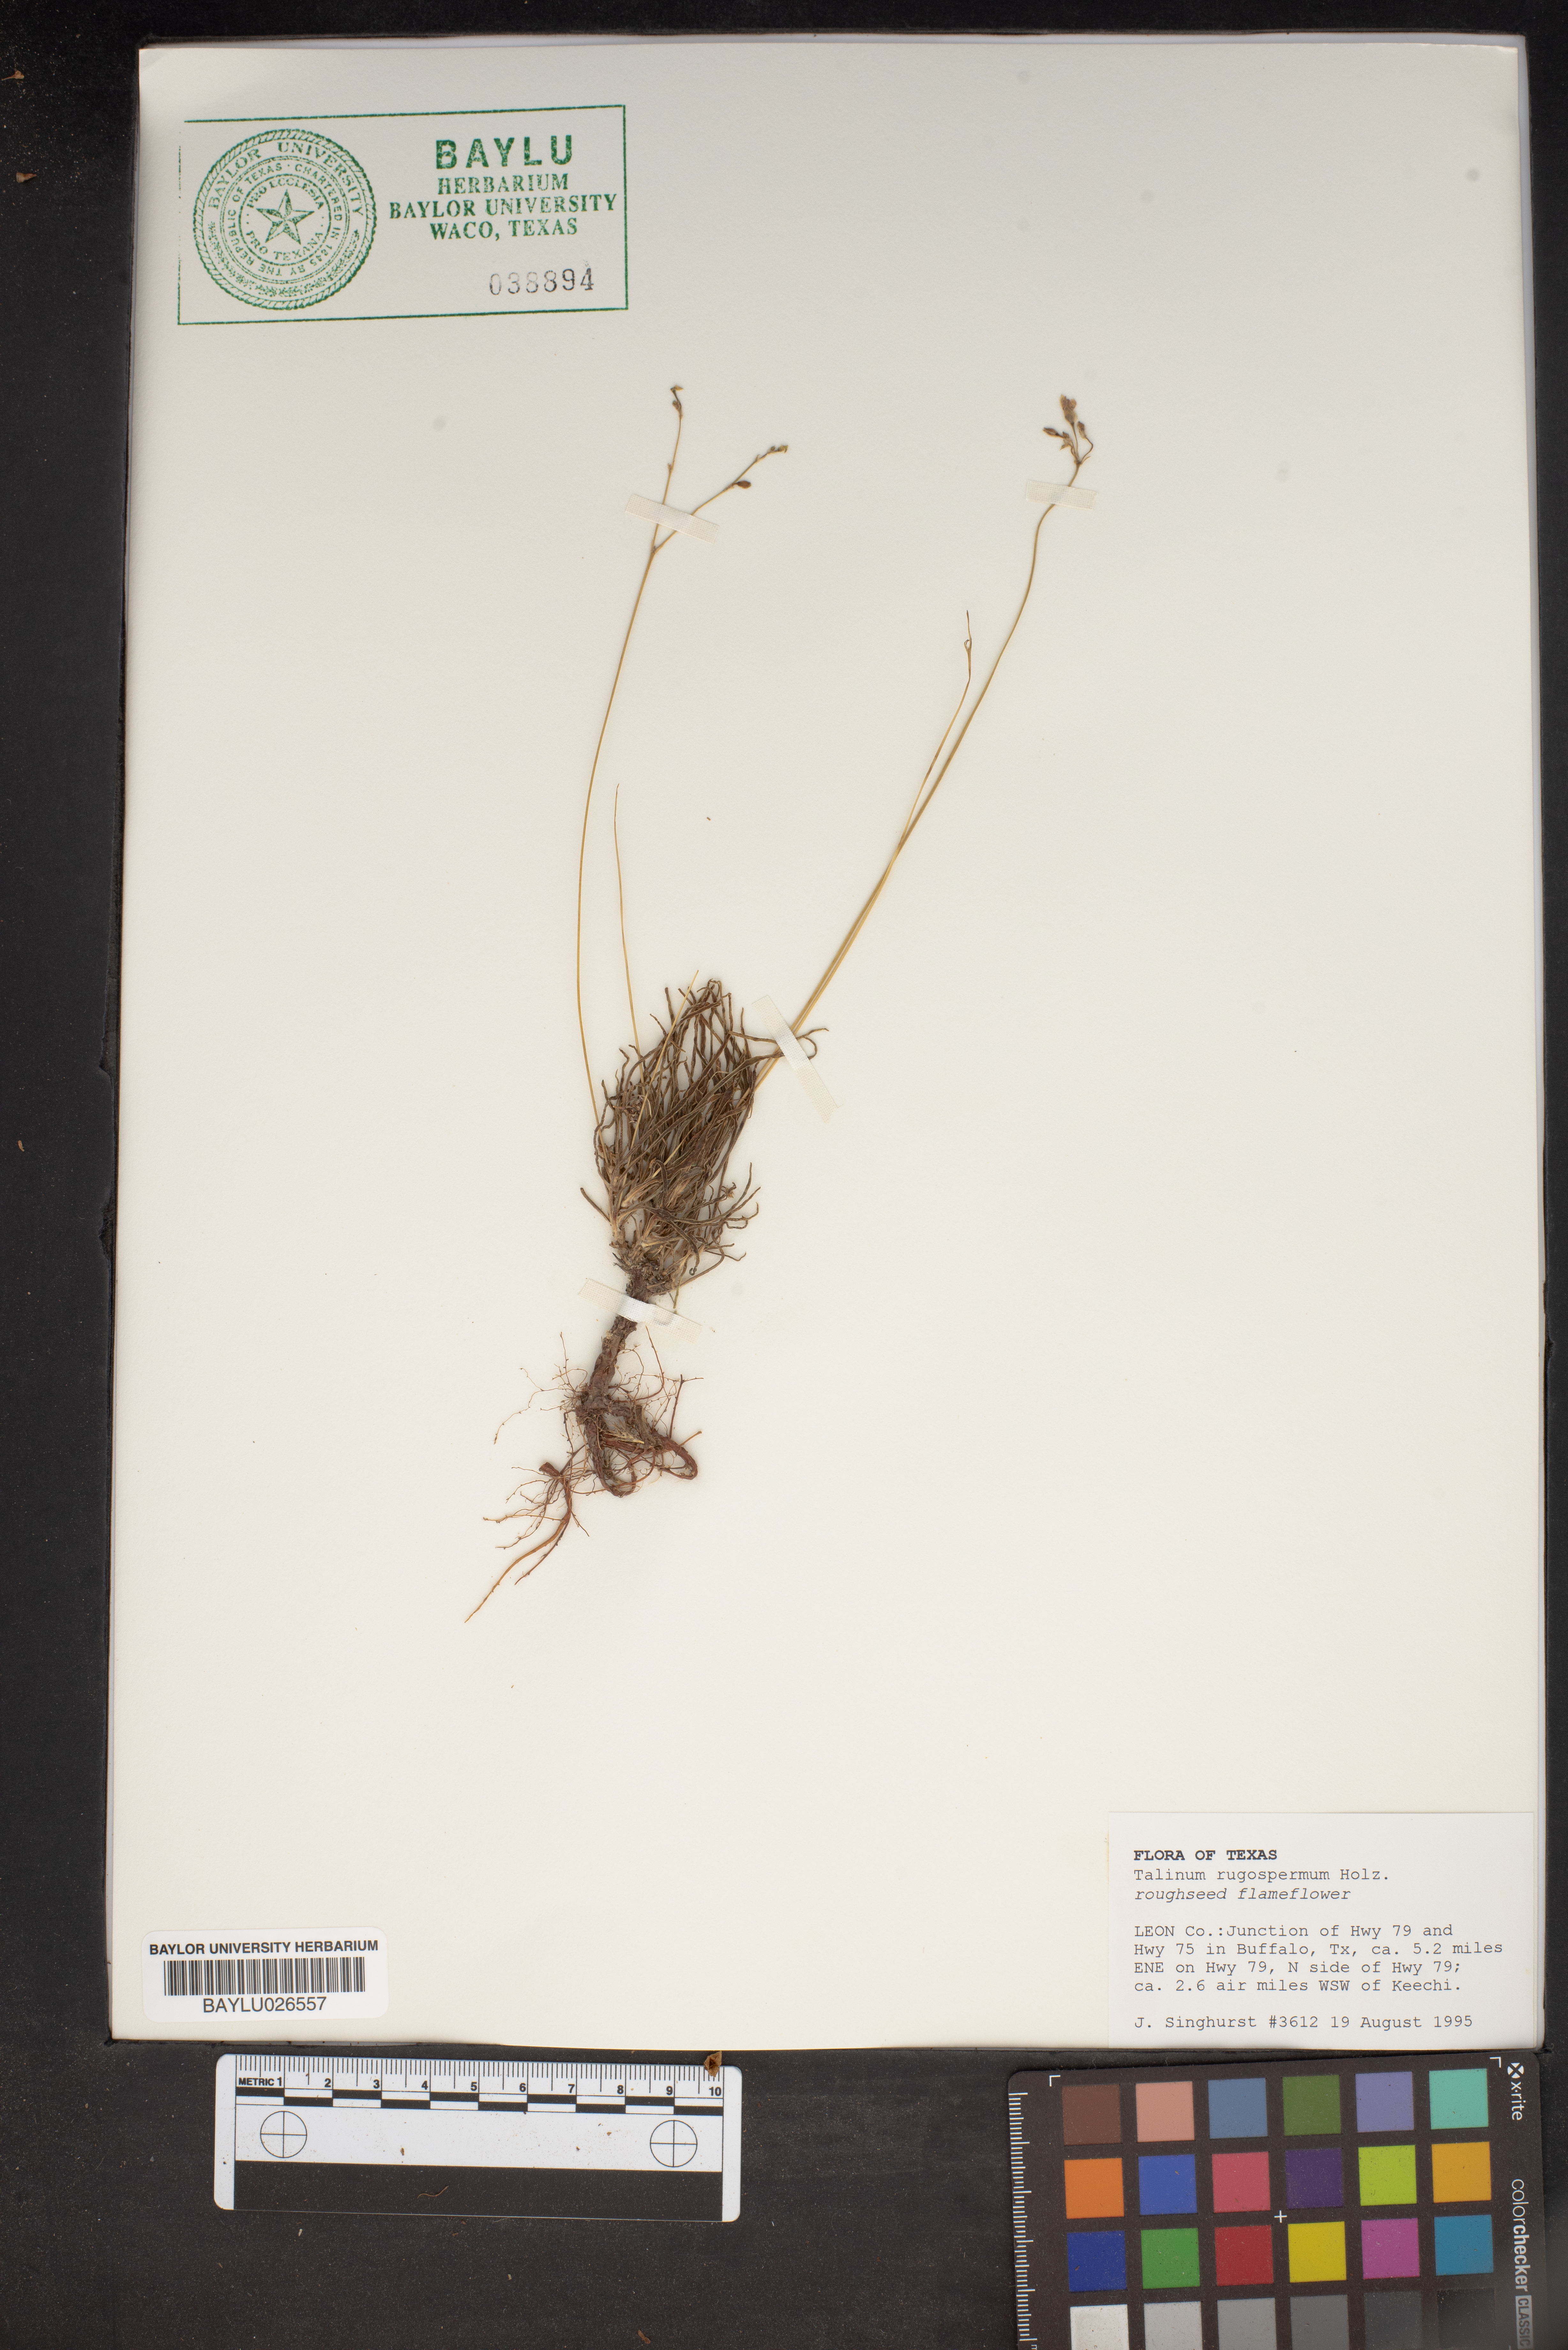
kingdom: Plantae
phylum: Tracheophyta
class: Magnoliopsida
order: Caryophyllales
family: Montiaceae
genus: Phemeranthus
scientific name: Phemeranthus rugospermus
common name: Prairie fameflower
